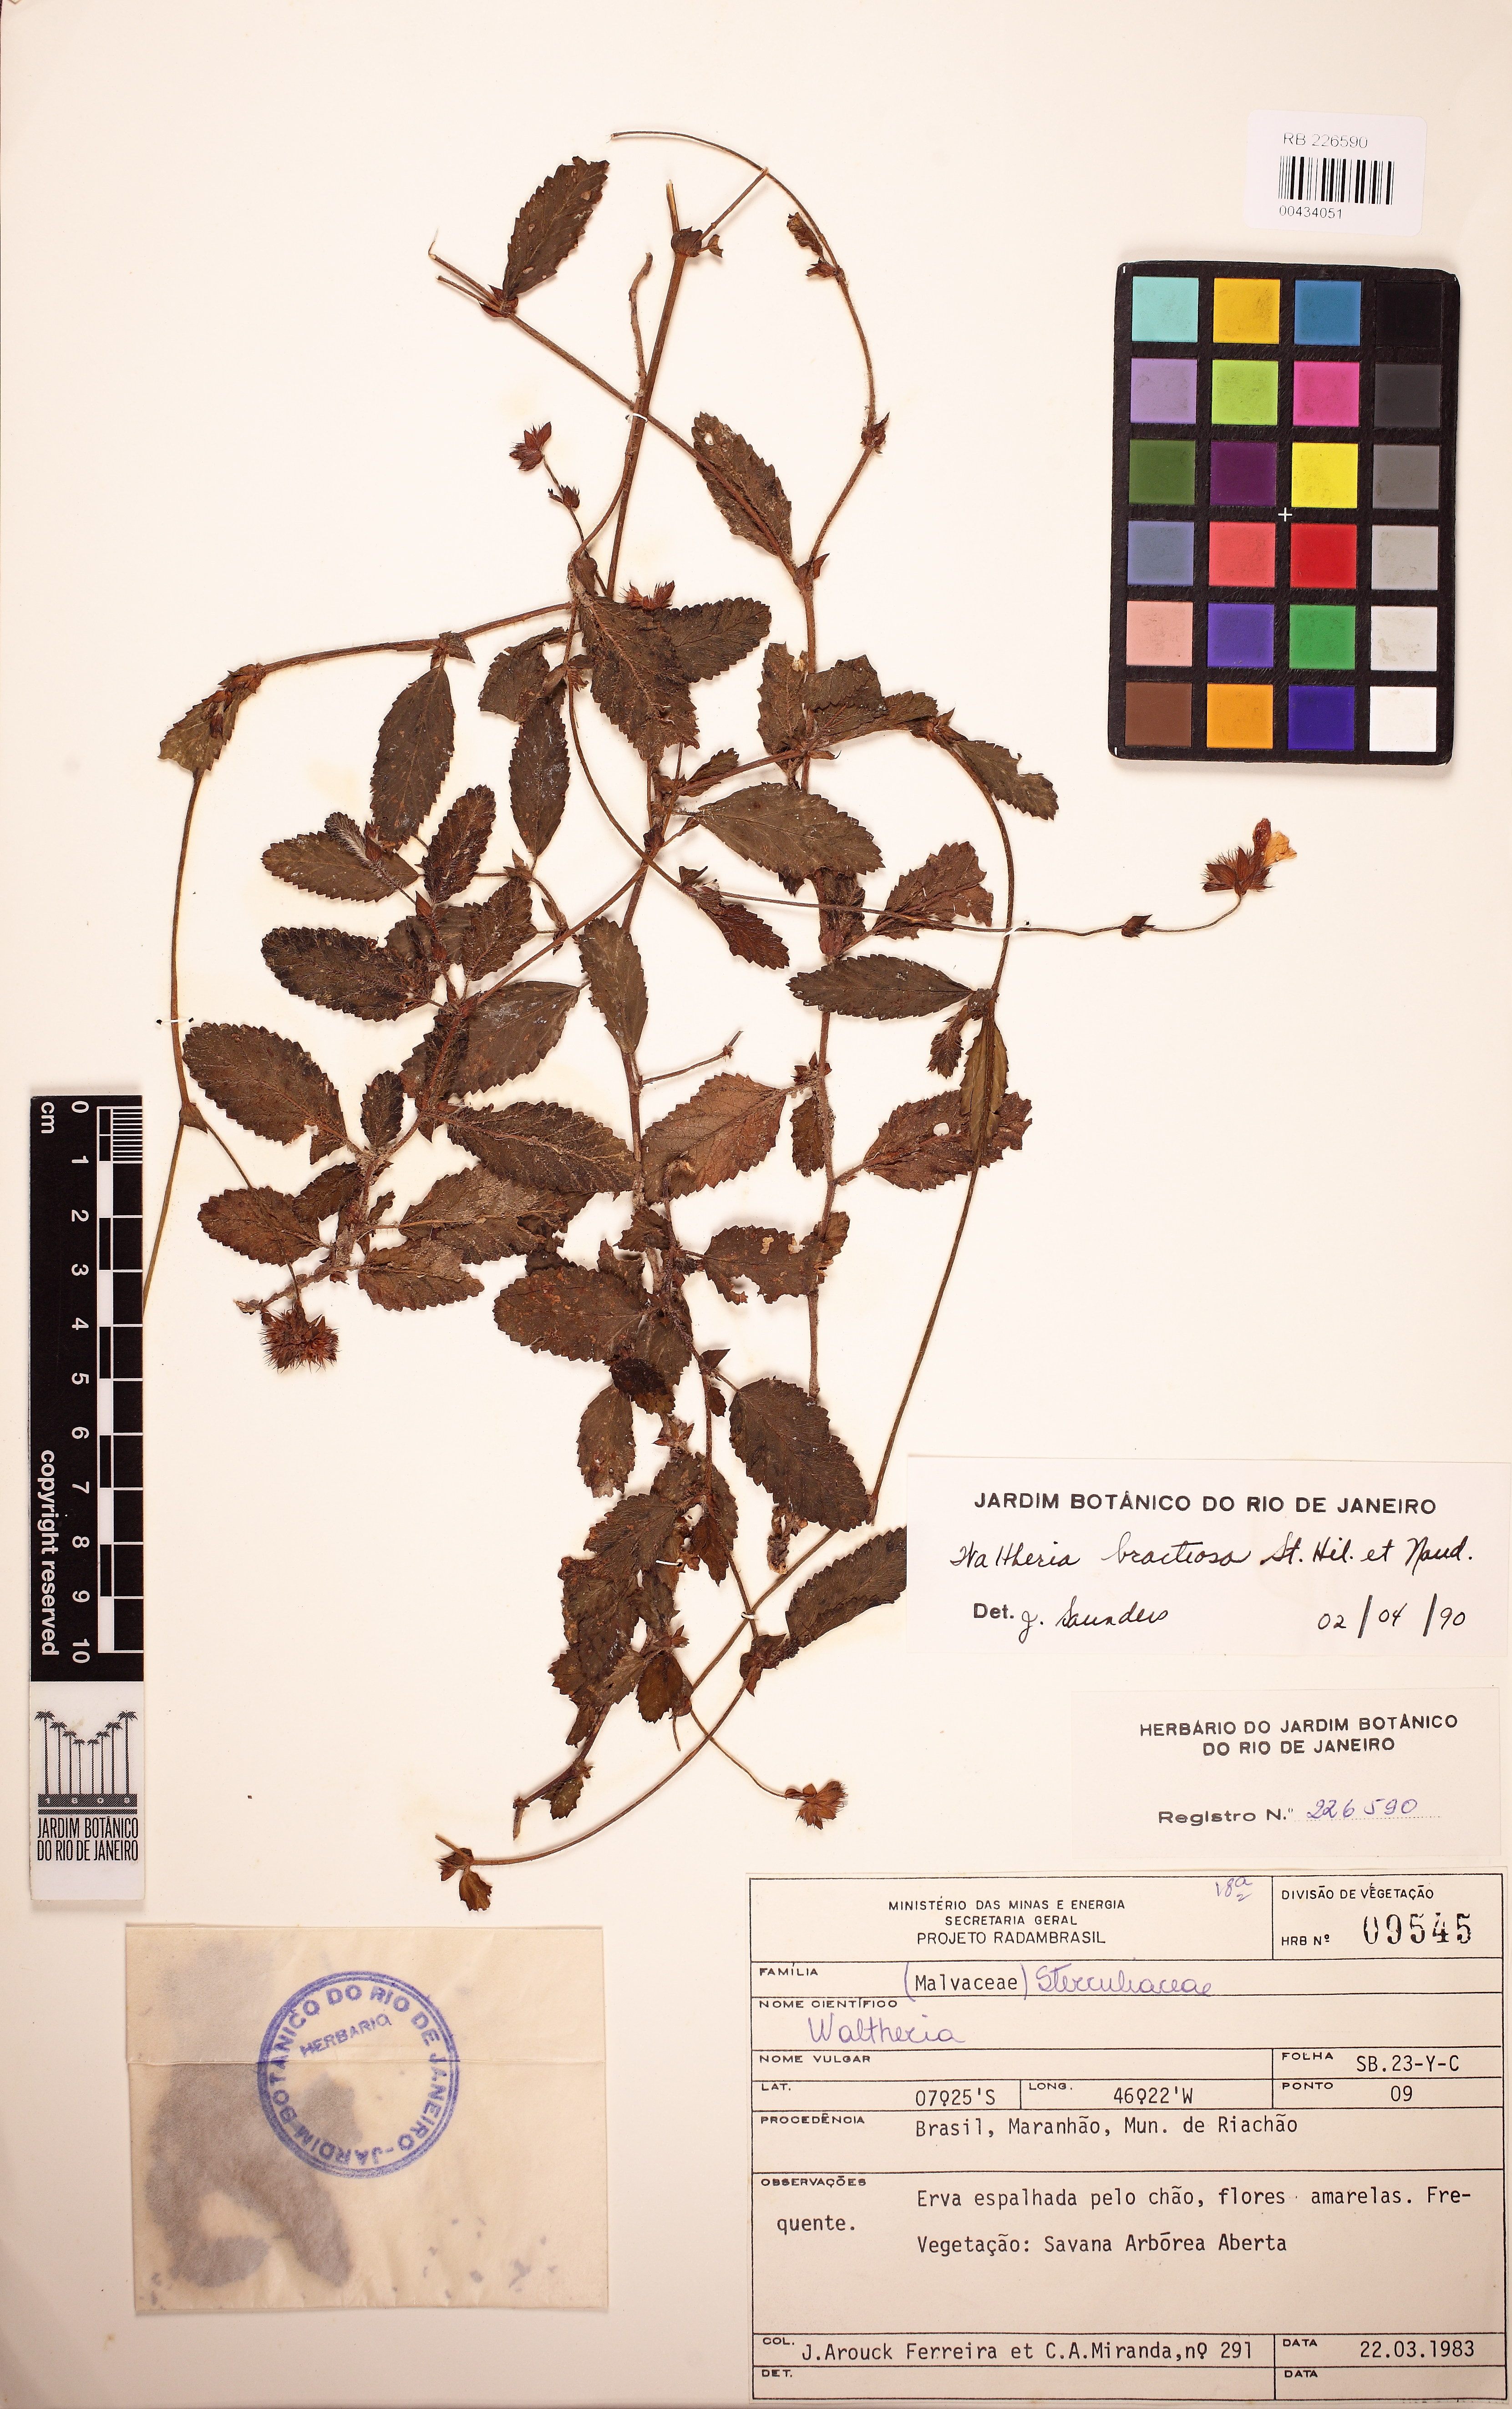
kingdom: Plantae
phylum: Tracheophyta
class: Magnoliopsida
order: Malvales
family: Malvaceae
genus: Waltheria
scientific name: Waltheria bracteosa
